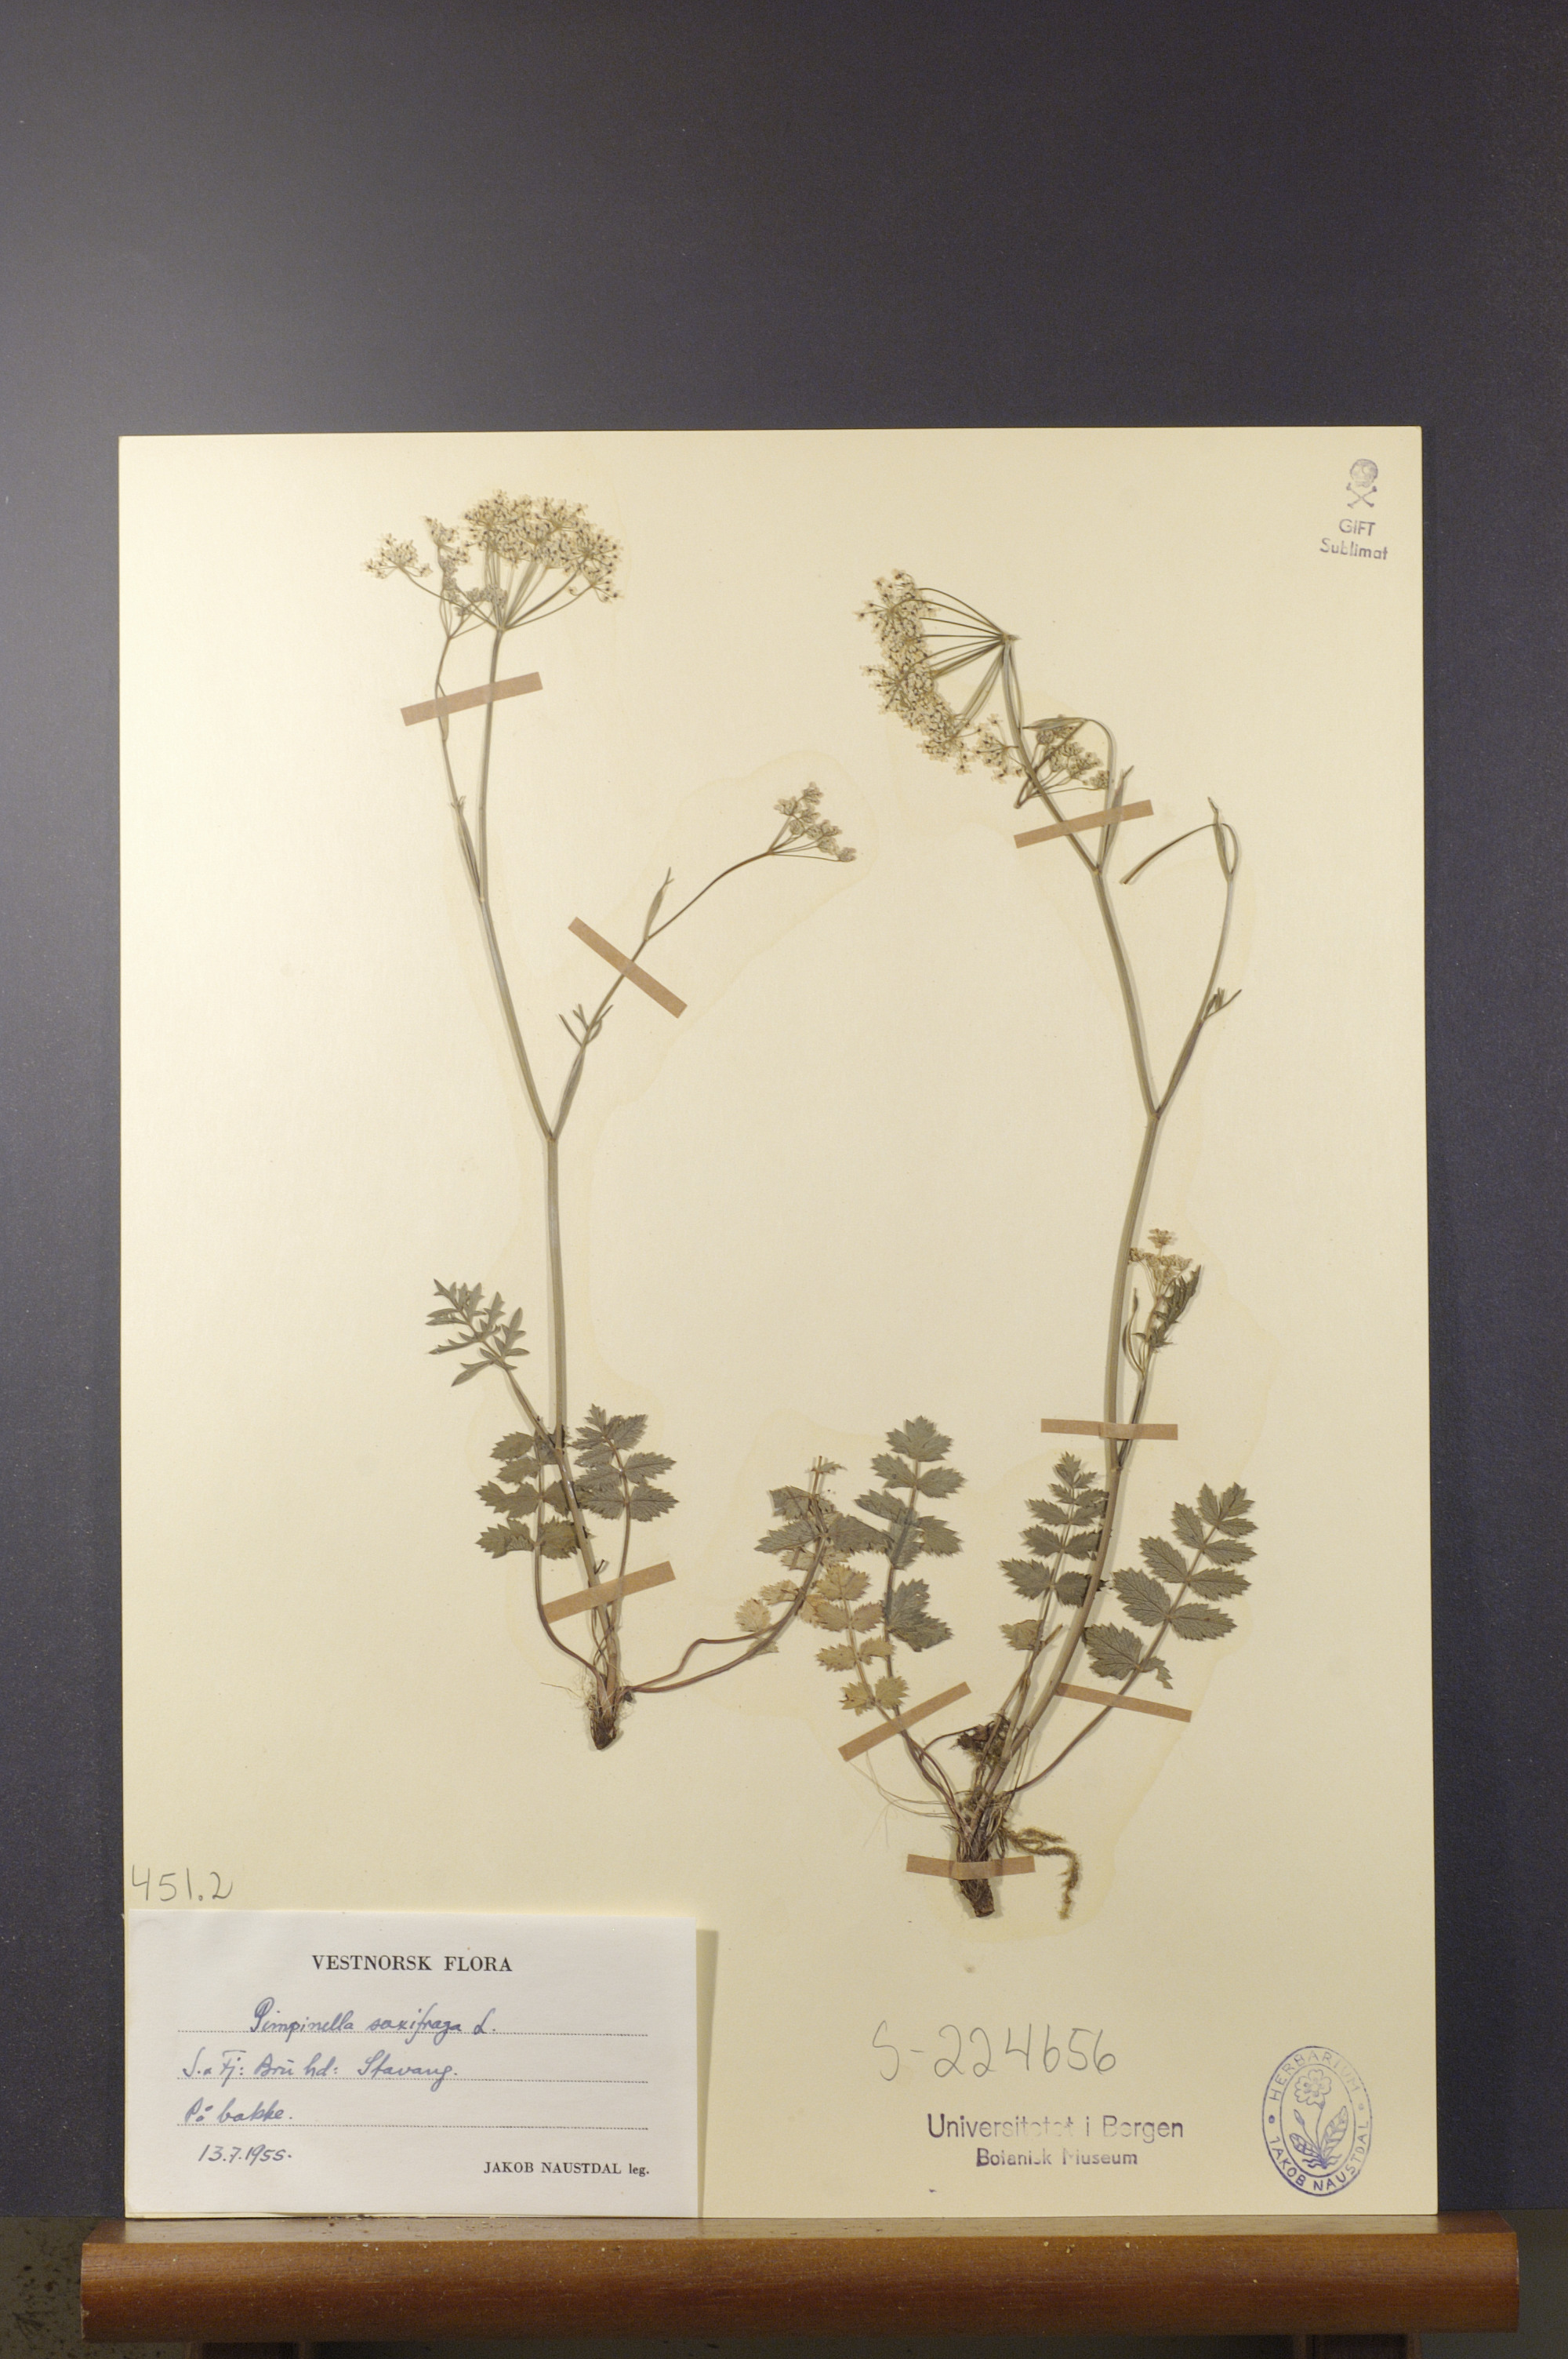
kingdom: Plantae
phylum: Tracheophyta
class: Magnoliopsida
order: Apiales
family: Apiaceae
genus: Pimpinella
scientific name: Pimpinella saxifraga
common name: Burnet-saxifrage
